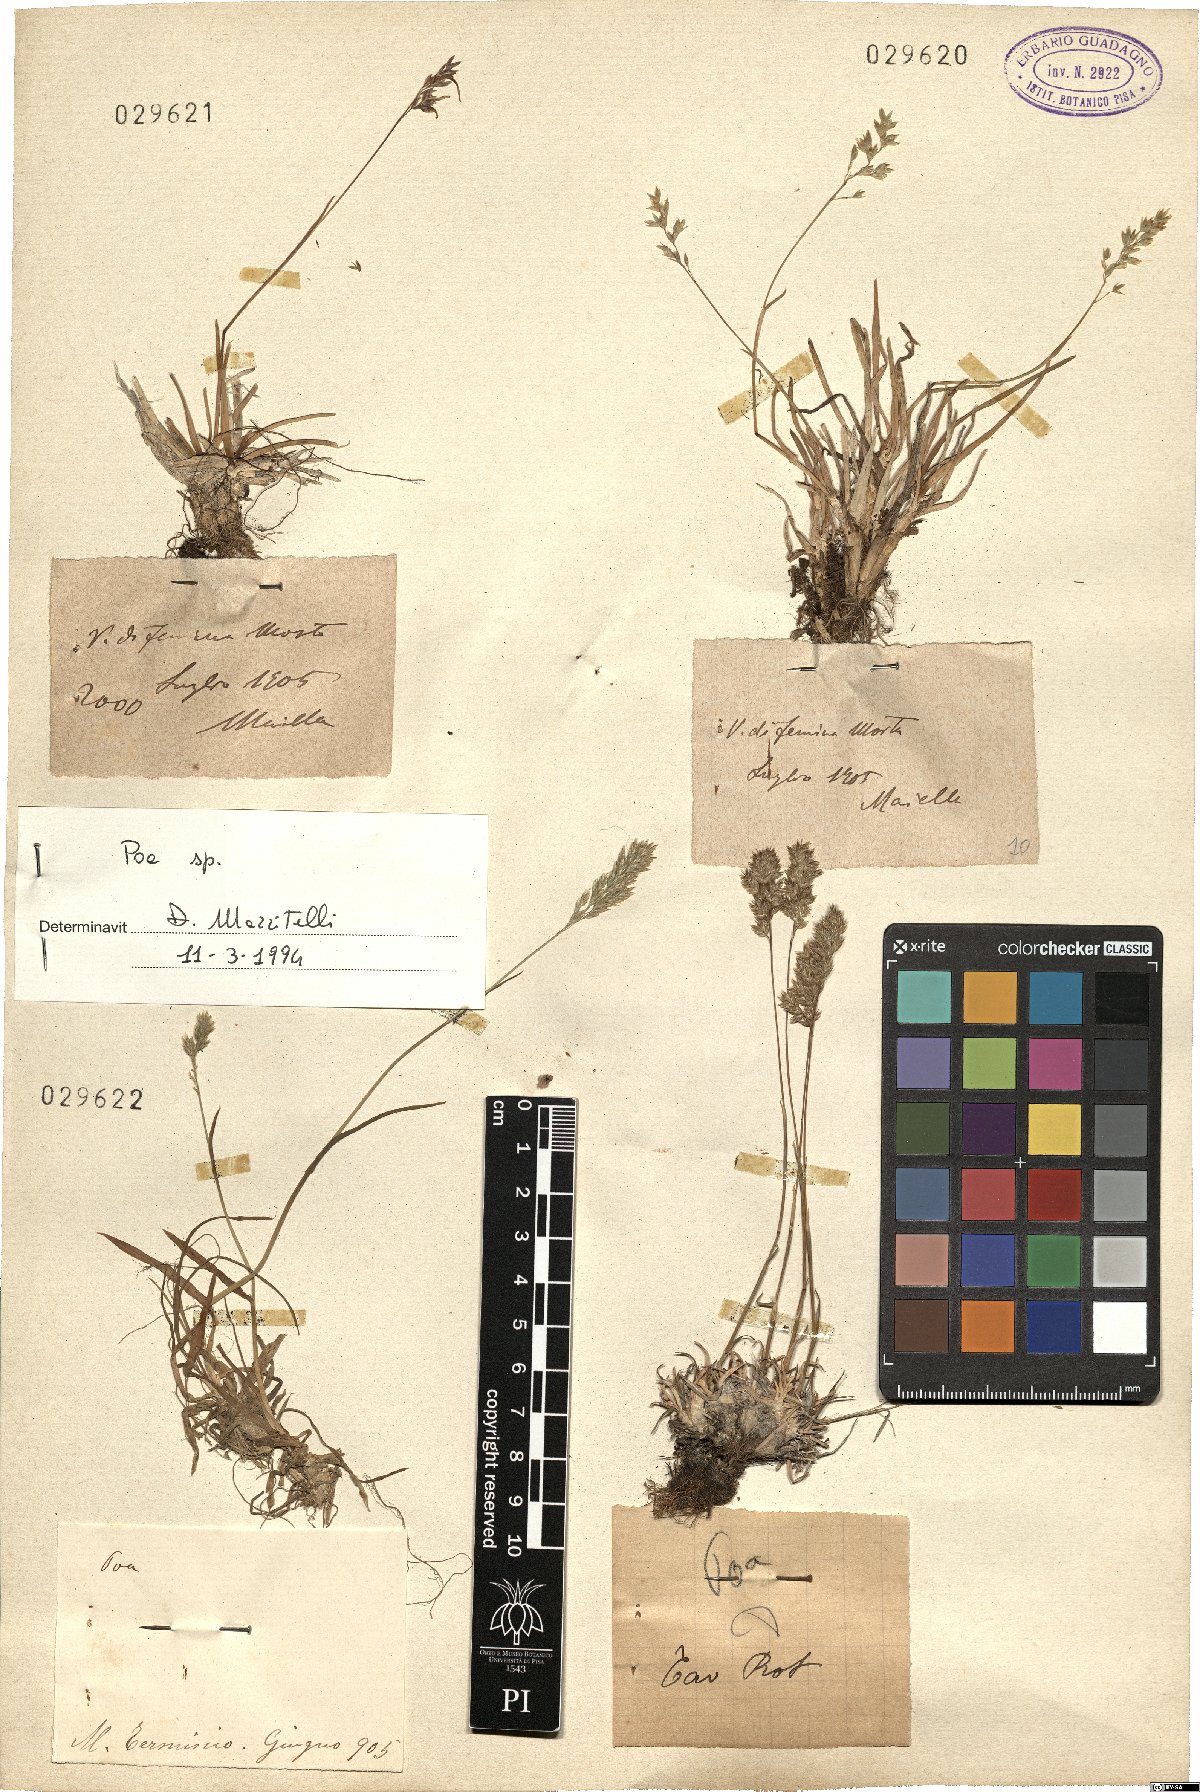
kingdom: Plantae
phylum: Tracheophyta
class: Liliopsida
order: Poales
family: Poaceae
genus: Poa
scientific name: Poa
